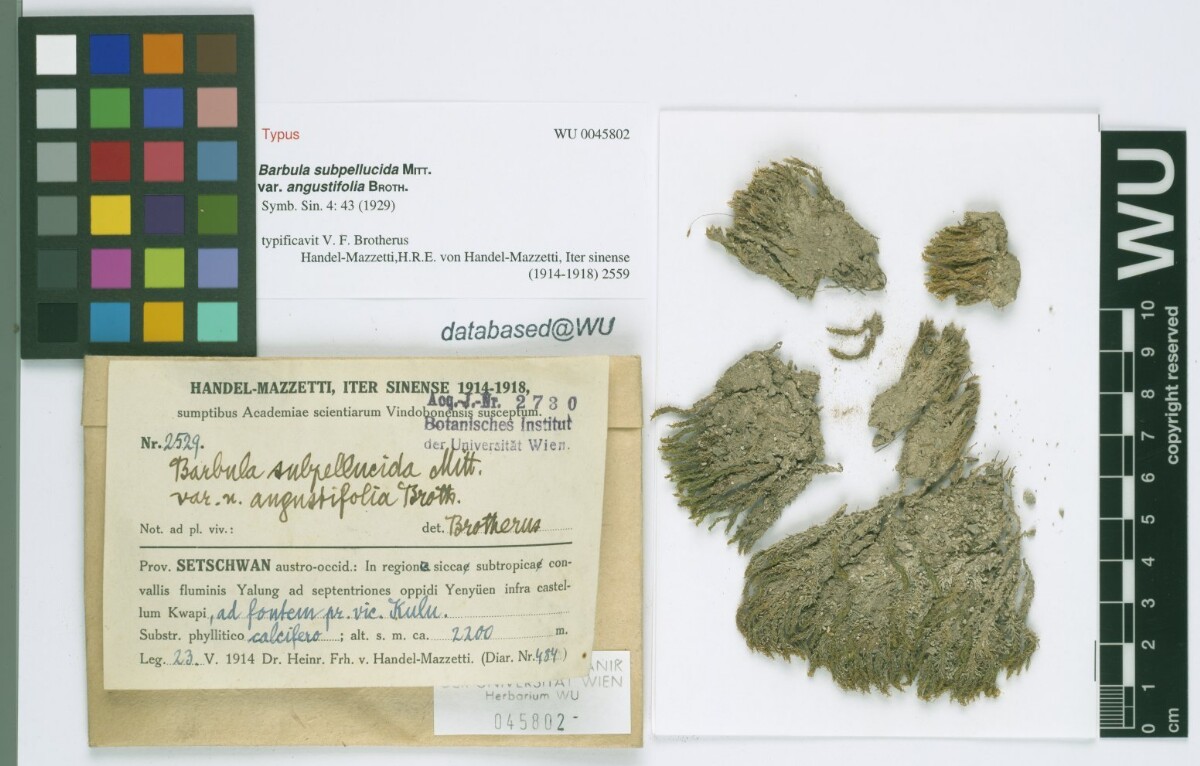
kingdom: Plantae
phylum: Bryophyta
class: Bryopsida
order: Pottiales
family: Pottiaceae
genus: Hydrogonium
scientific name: Hydrogonium subcomosum
